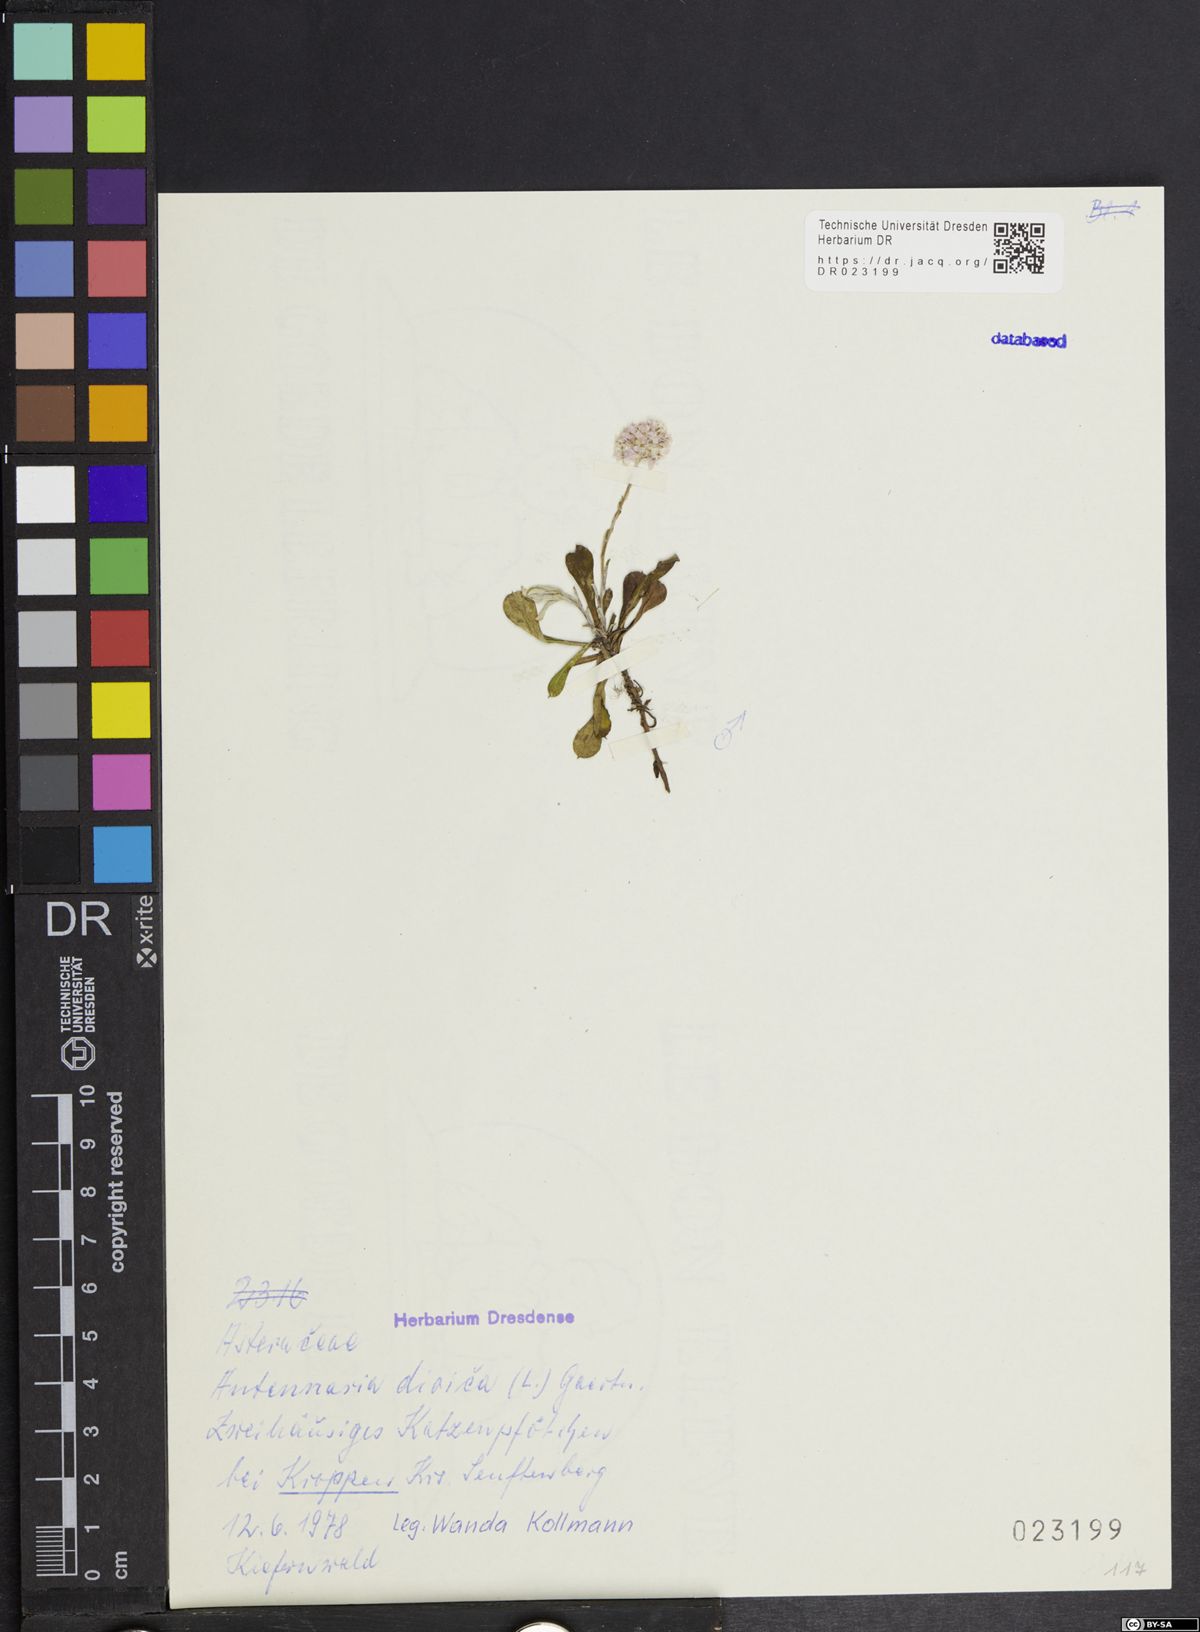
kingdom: Plantae
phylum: Tracheophyta
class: Magnoliopsida
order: Asterales
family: Asteraceae
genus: Antennaria
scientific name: Antennaria dioica
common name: Mountain everlasting
